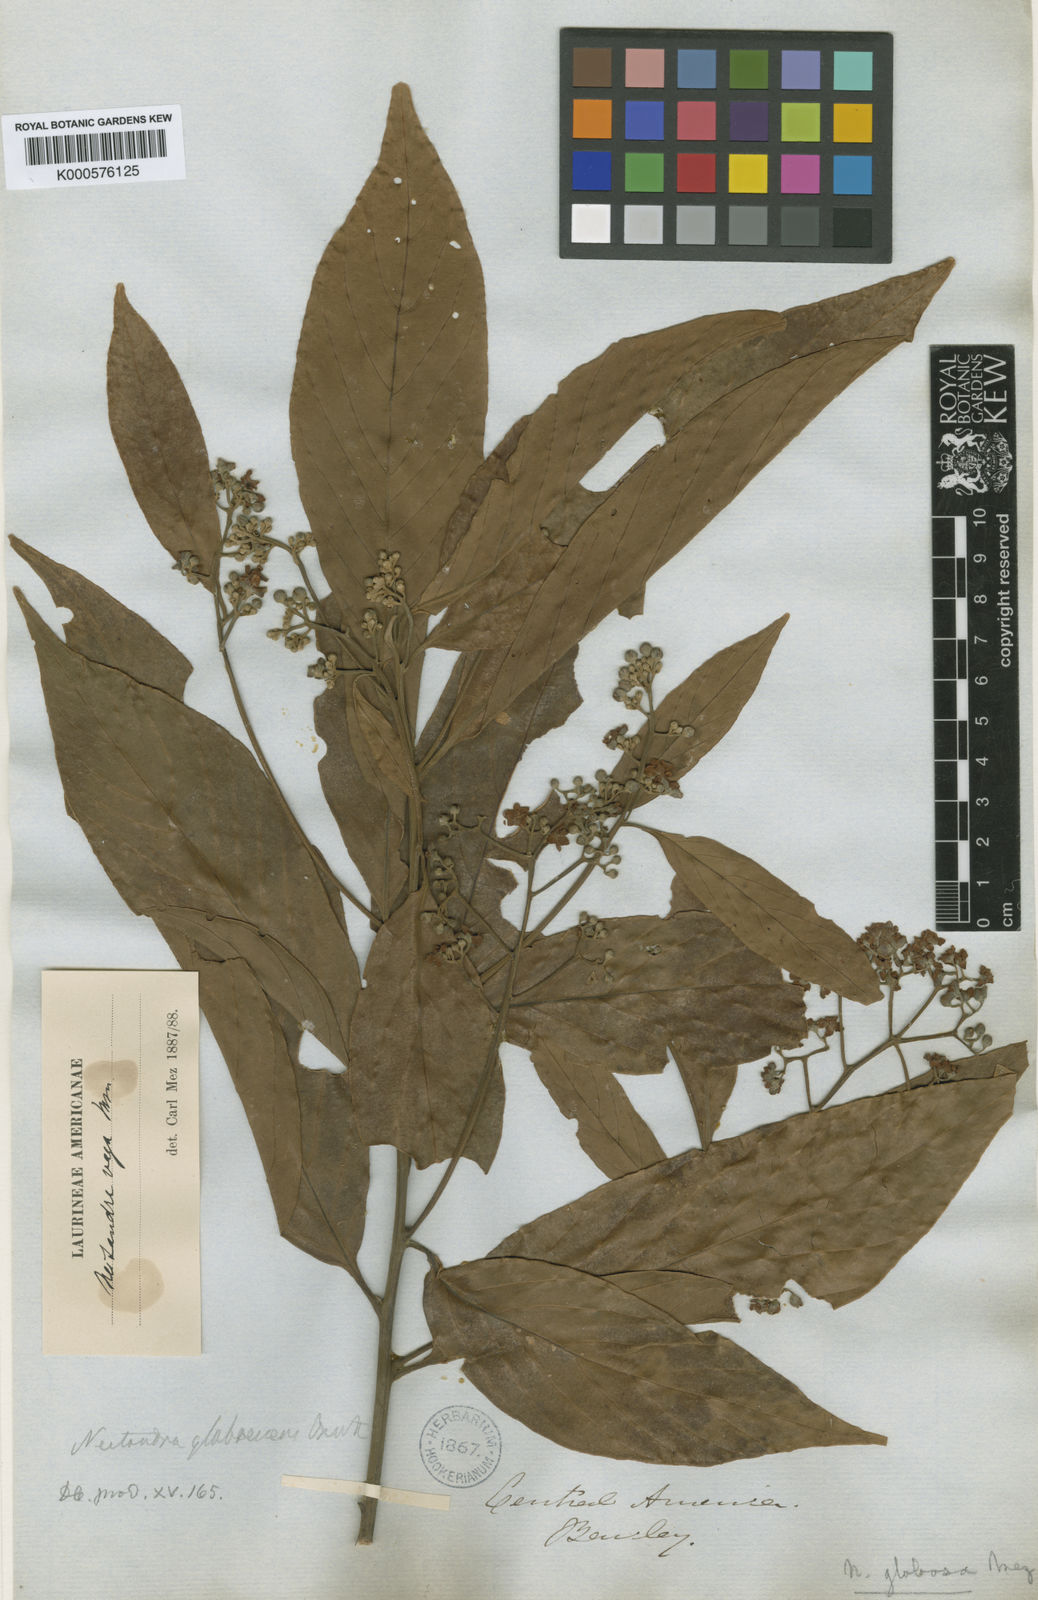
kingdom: Plantae
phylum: Tracheophyta
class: Magnoliopsida
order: Laurales
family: Lauraceae
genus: Nectandra
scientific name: Nectandra globosa
